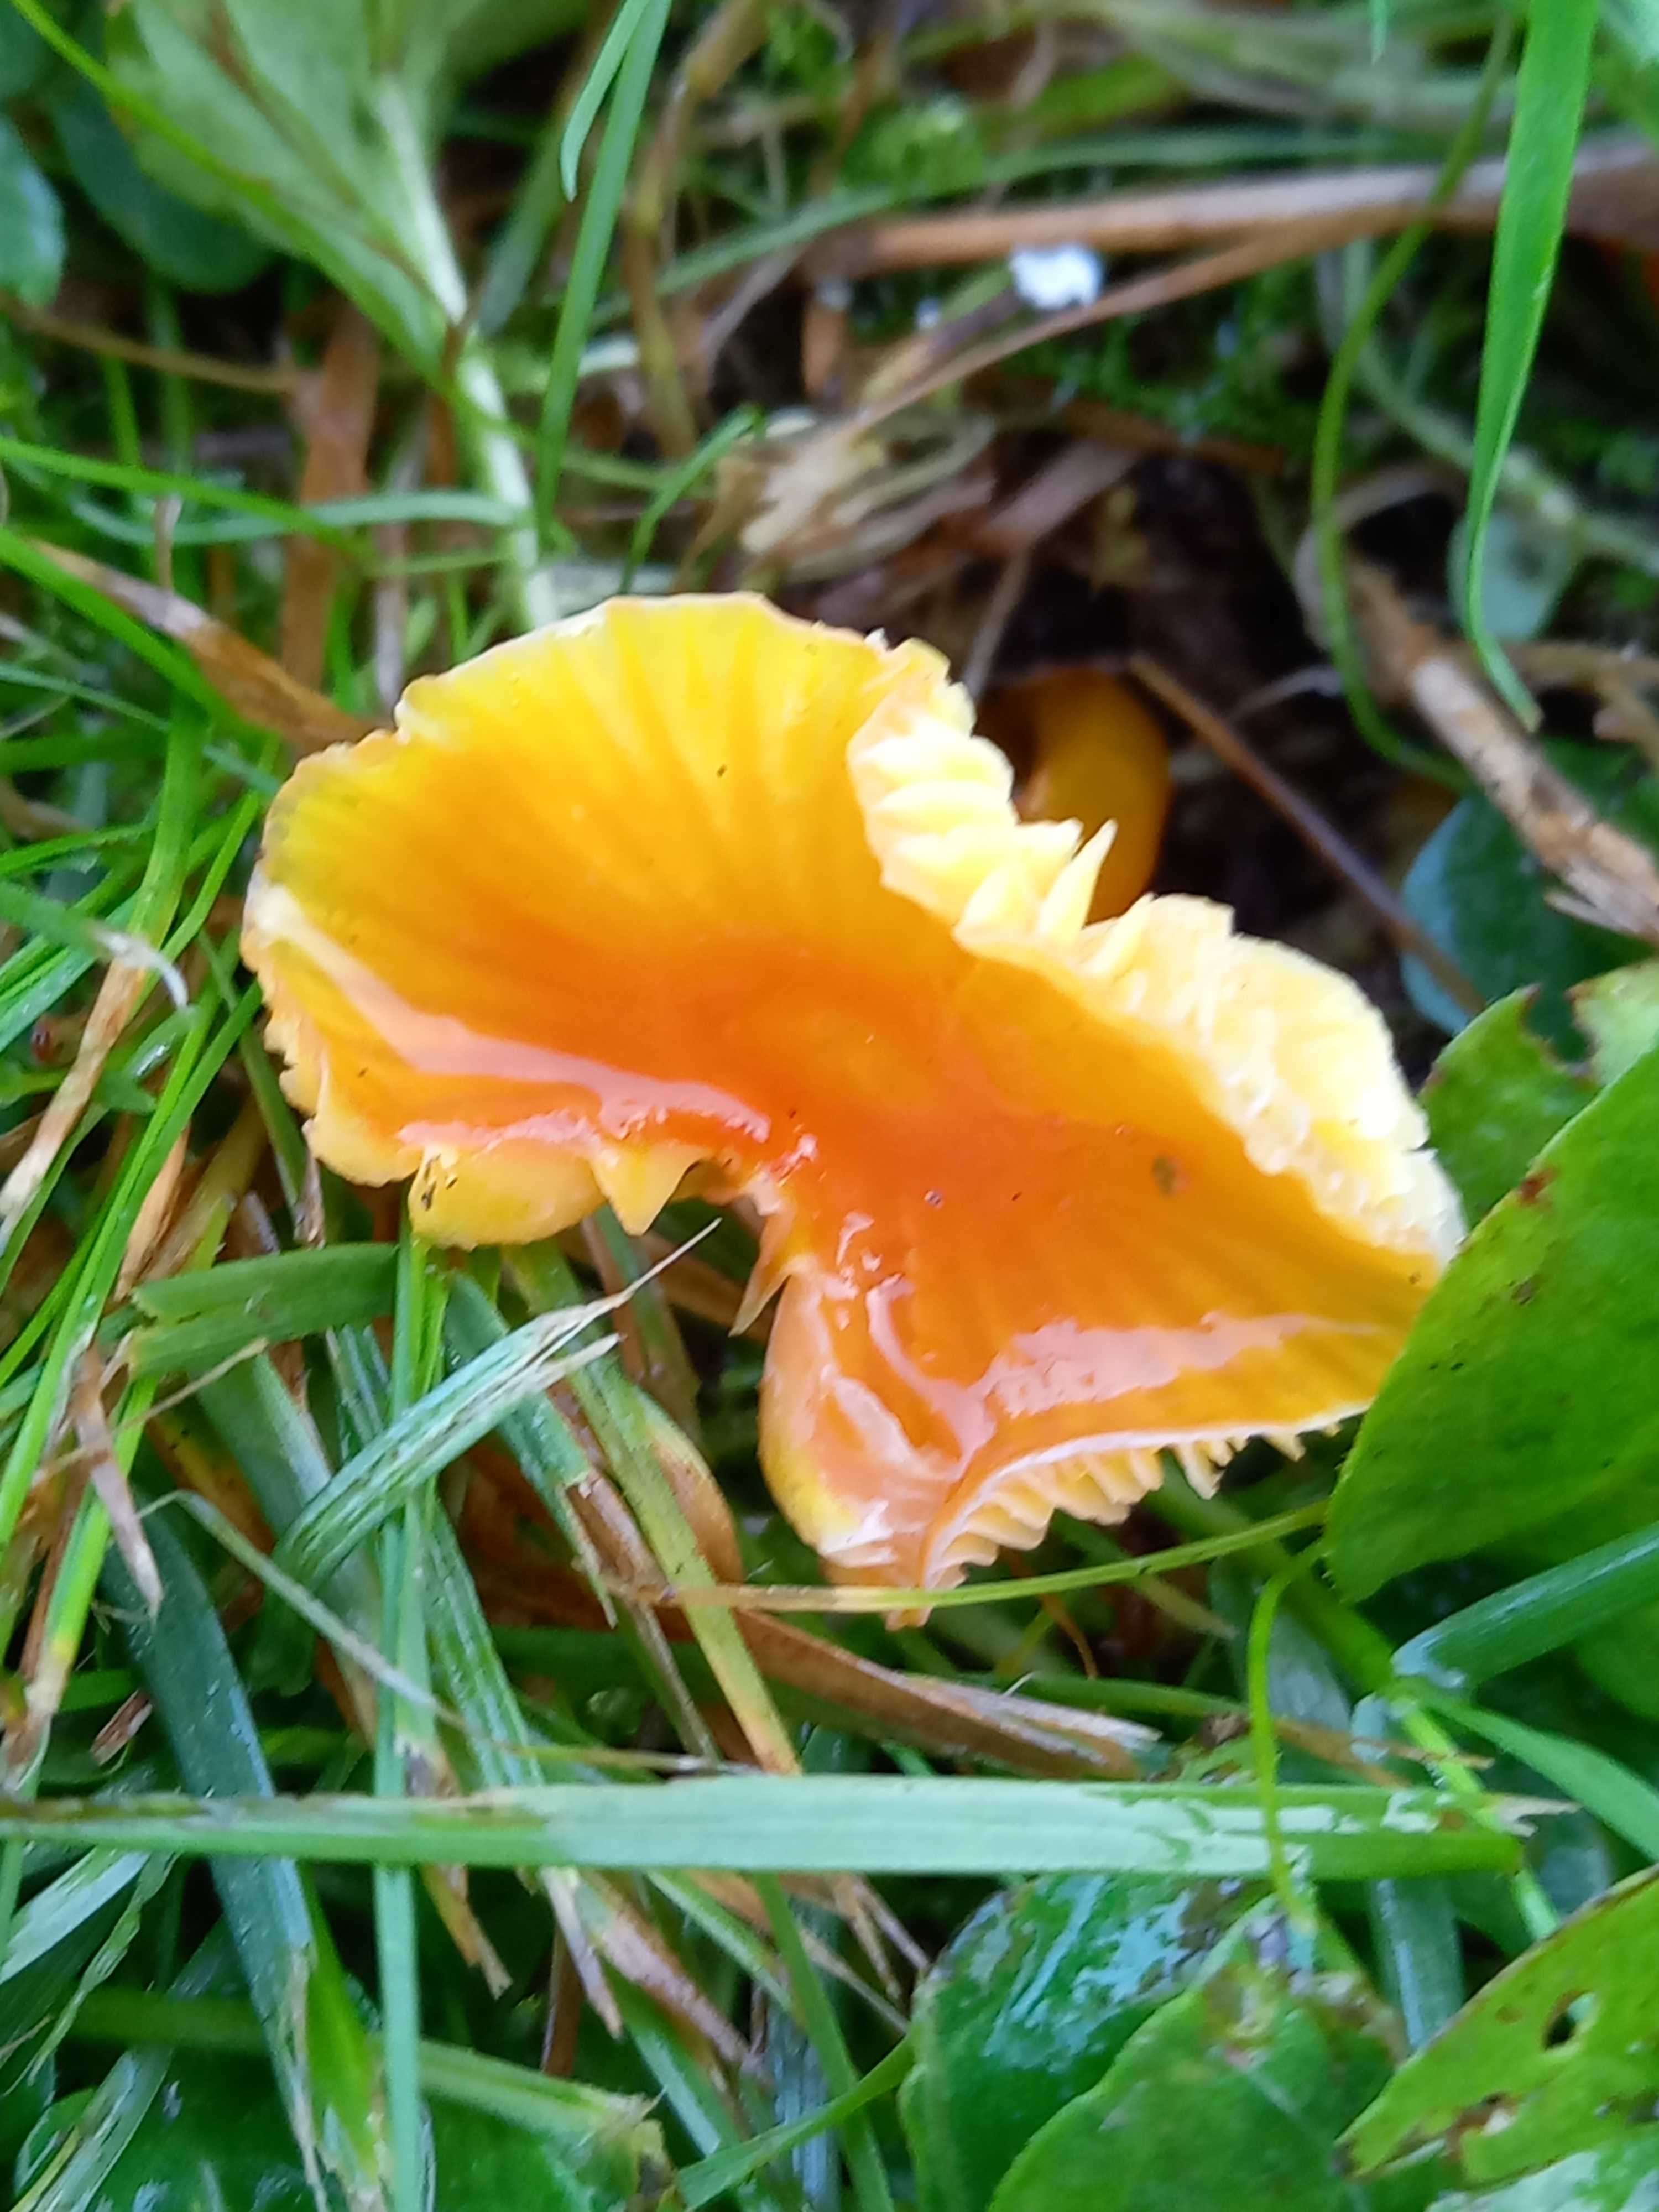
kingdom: Fungi
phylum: Basidiomycota
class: Agaricomycetes
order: Agaricales
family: Hygrophoraceae
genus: Hygrocybe
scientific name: Hygrocybe
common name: vokshat
